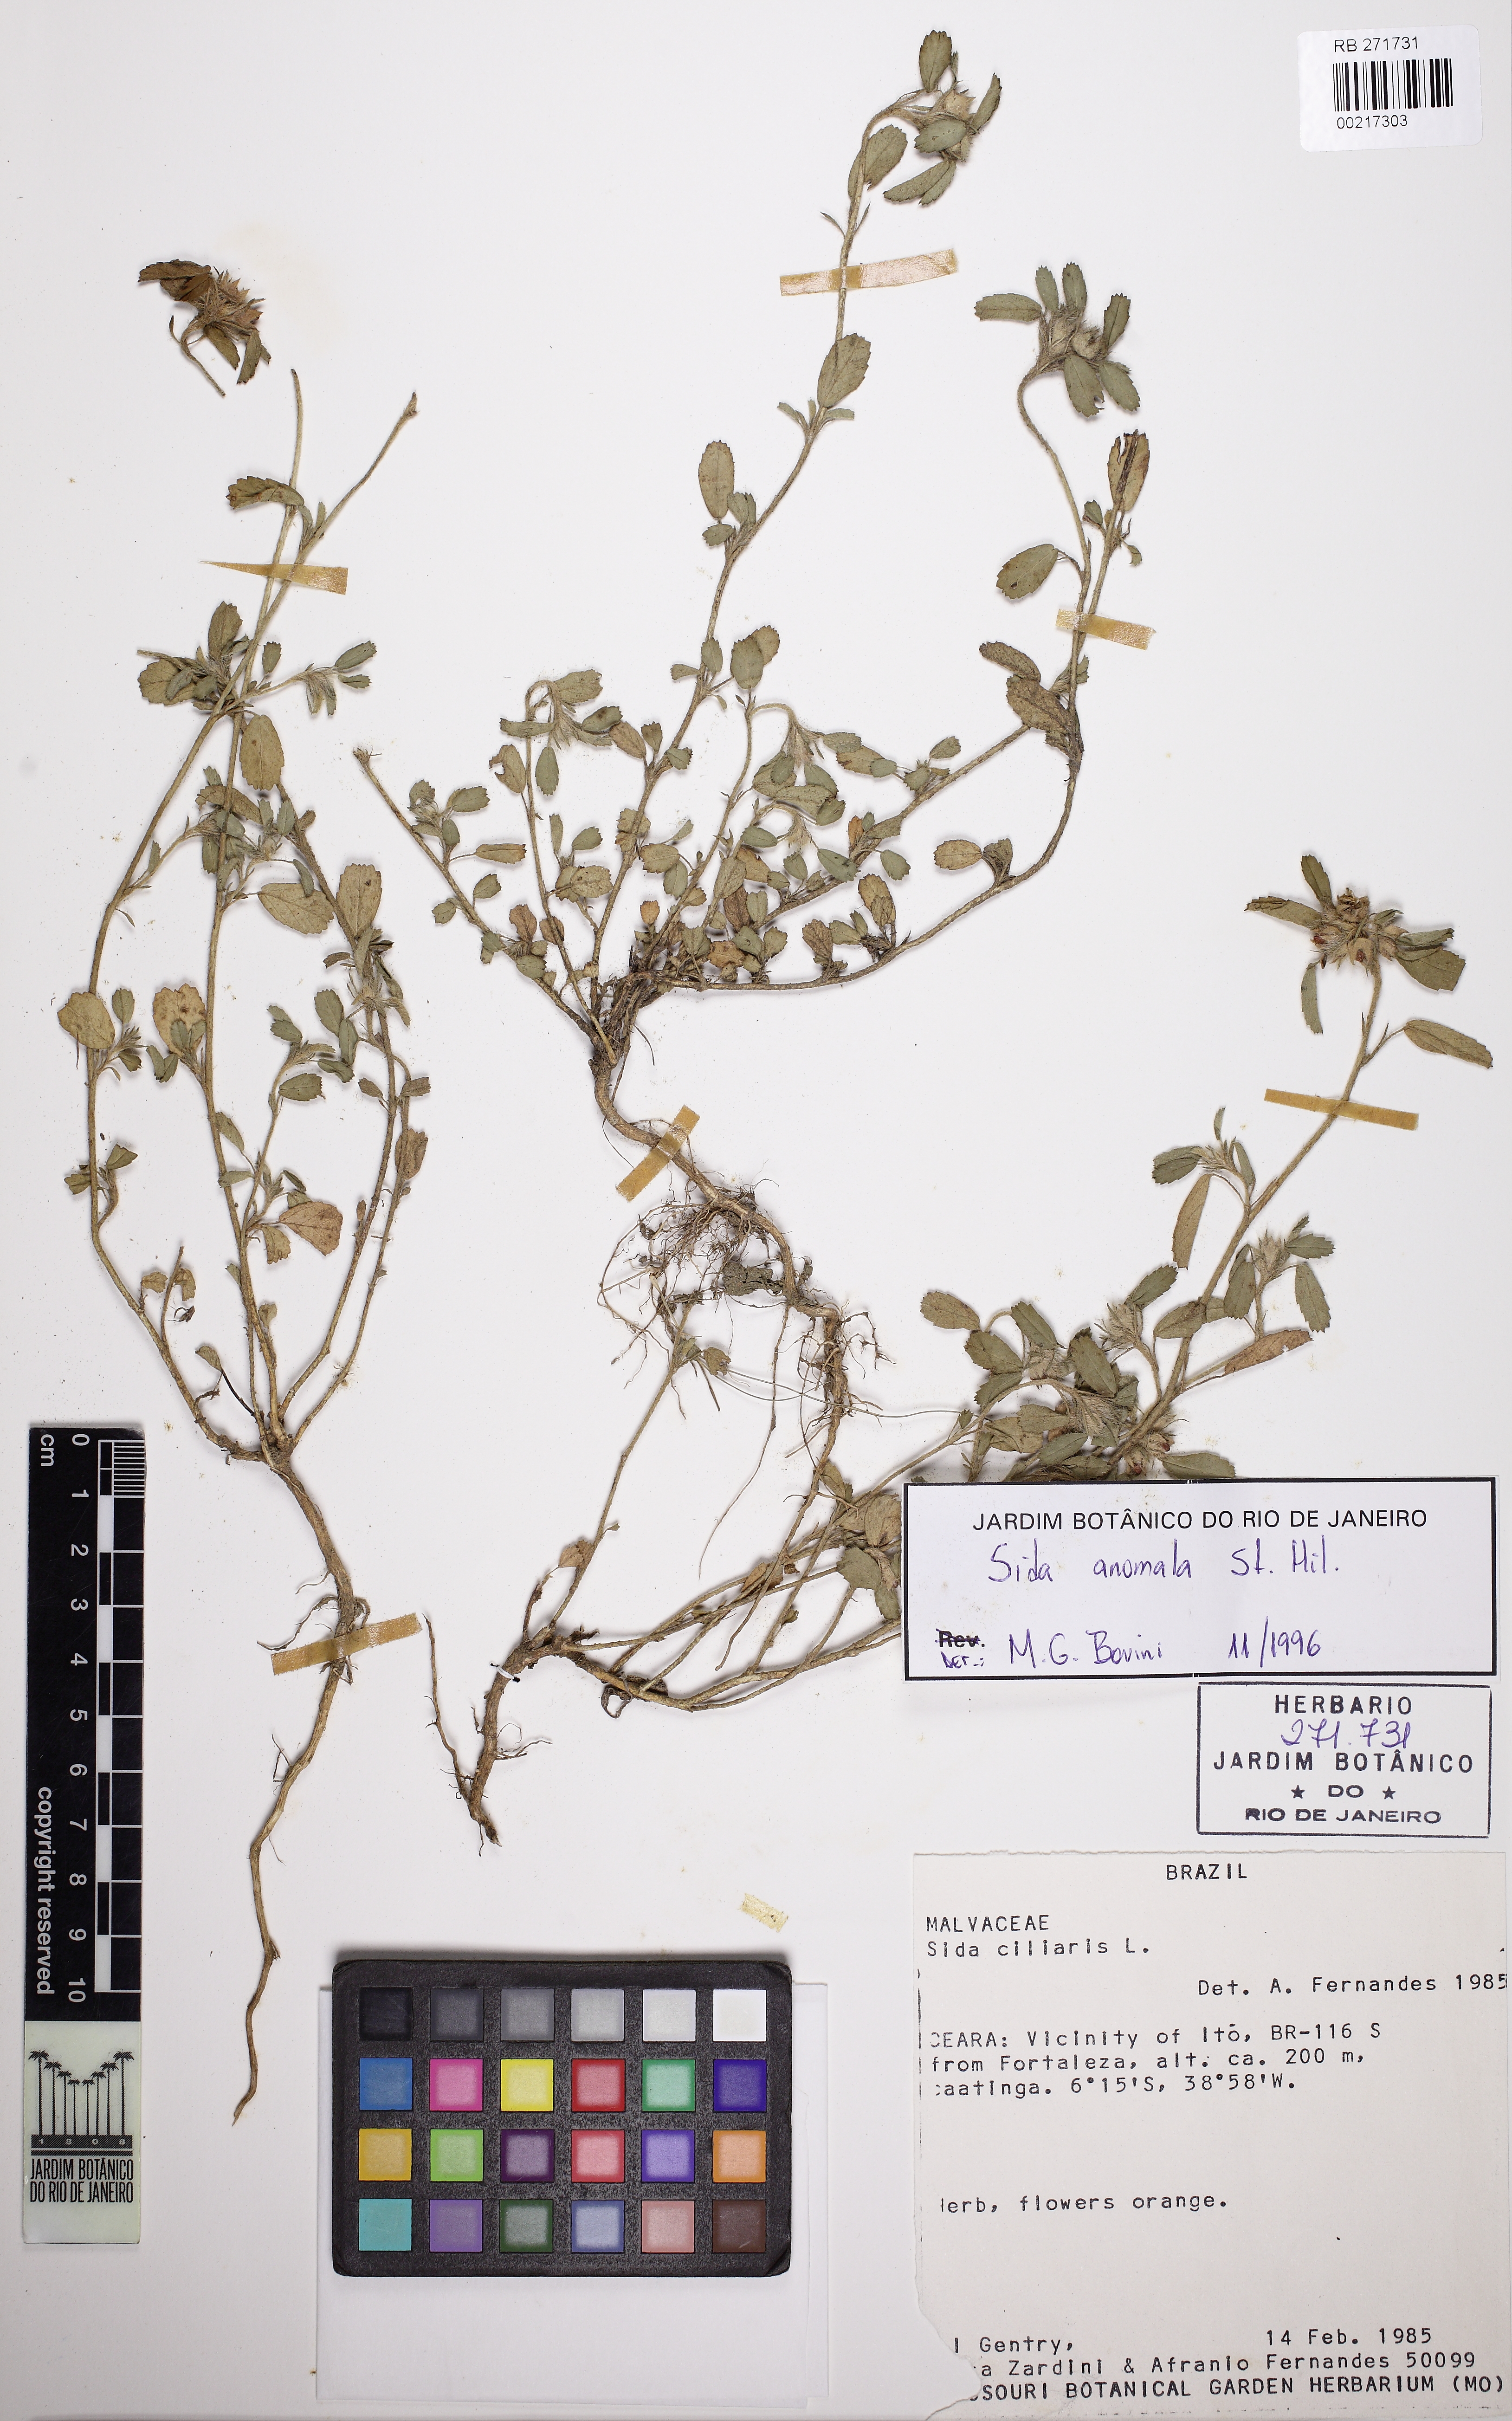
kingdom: Plantae
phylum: Tracheophyta
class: Magnoliopsida
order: Malvales
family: Malvaceae
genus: Sida
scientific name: Sida anomala
